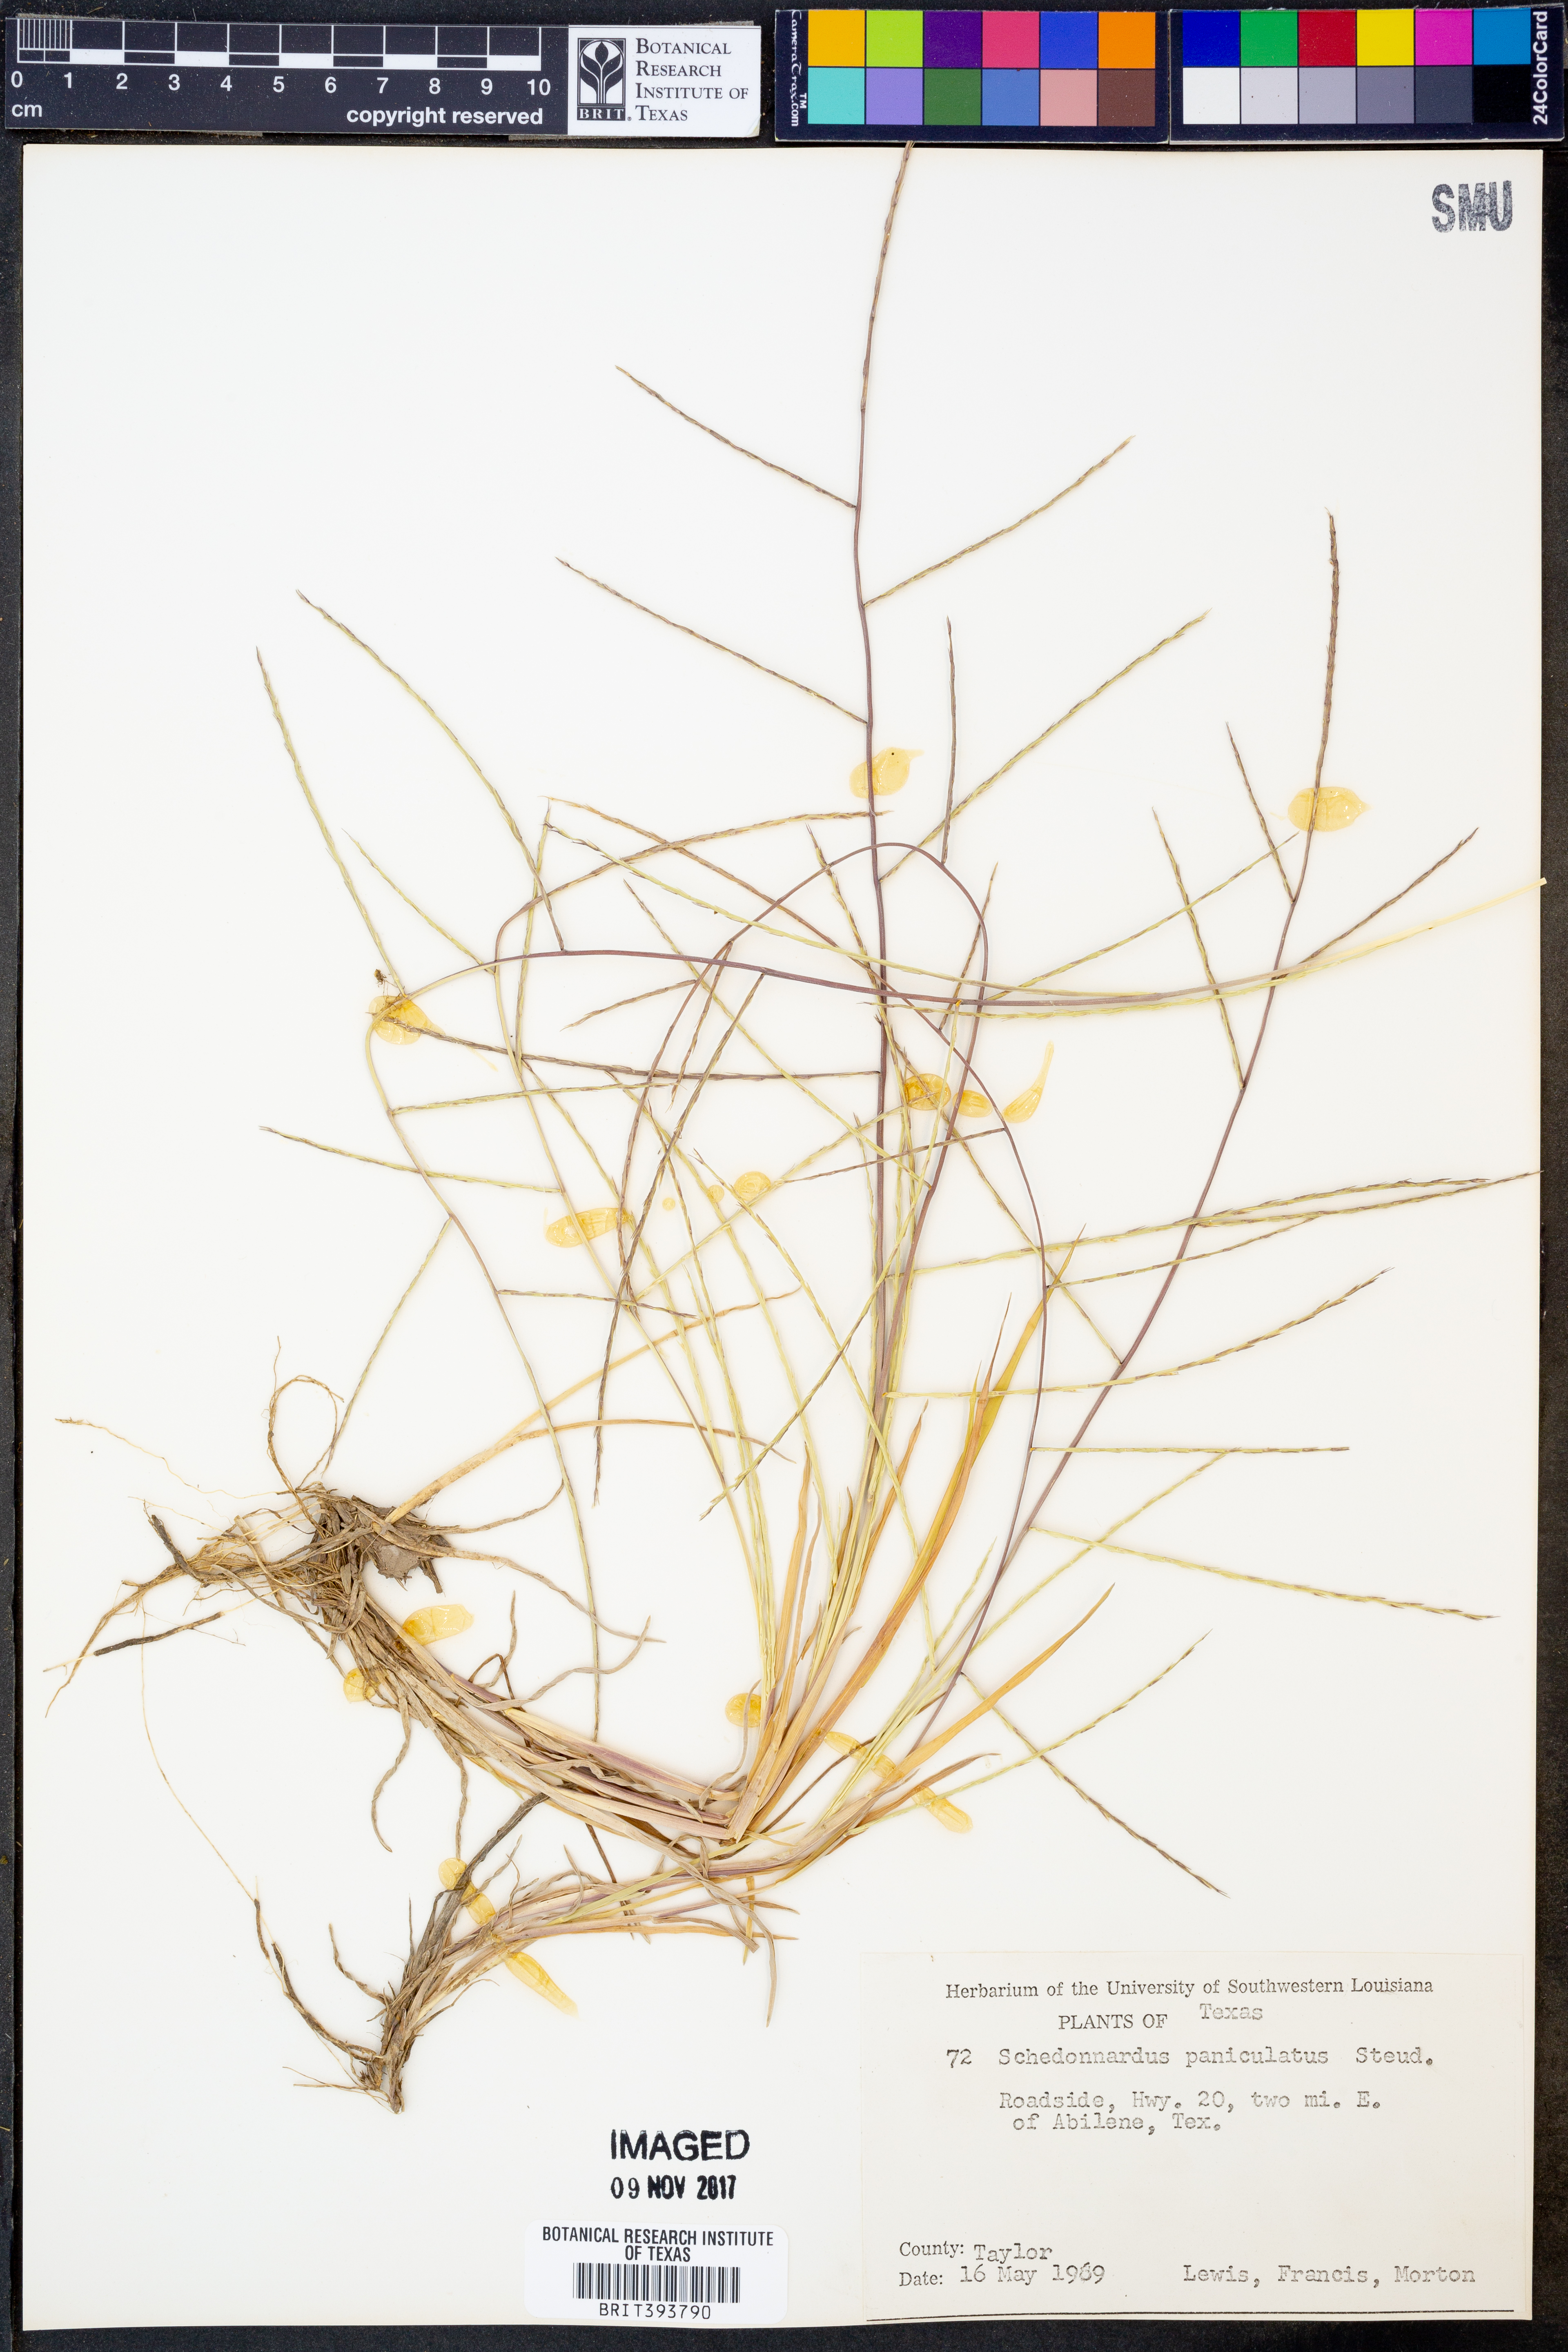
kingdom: Plantae
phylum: Tracheophyta
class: Liliopsida
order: Poales
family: Poaceae
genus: Muhlenbergia
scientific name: Muhlenbergia paniculata
